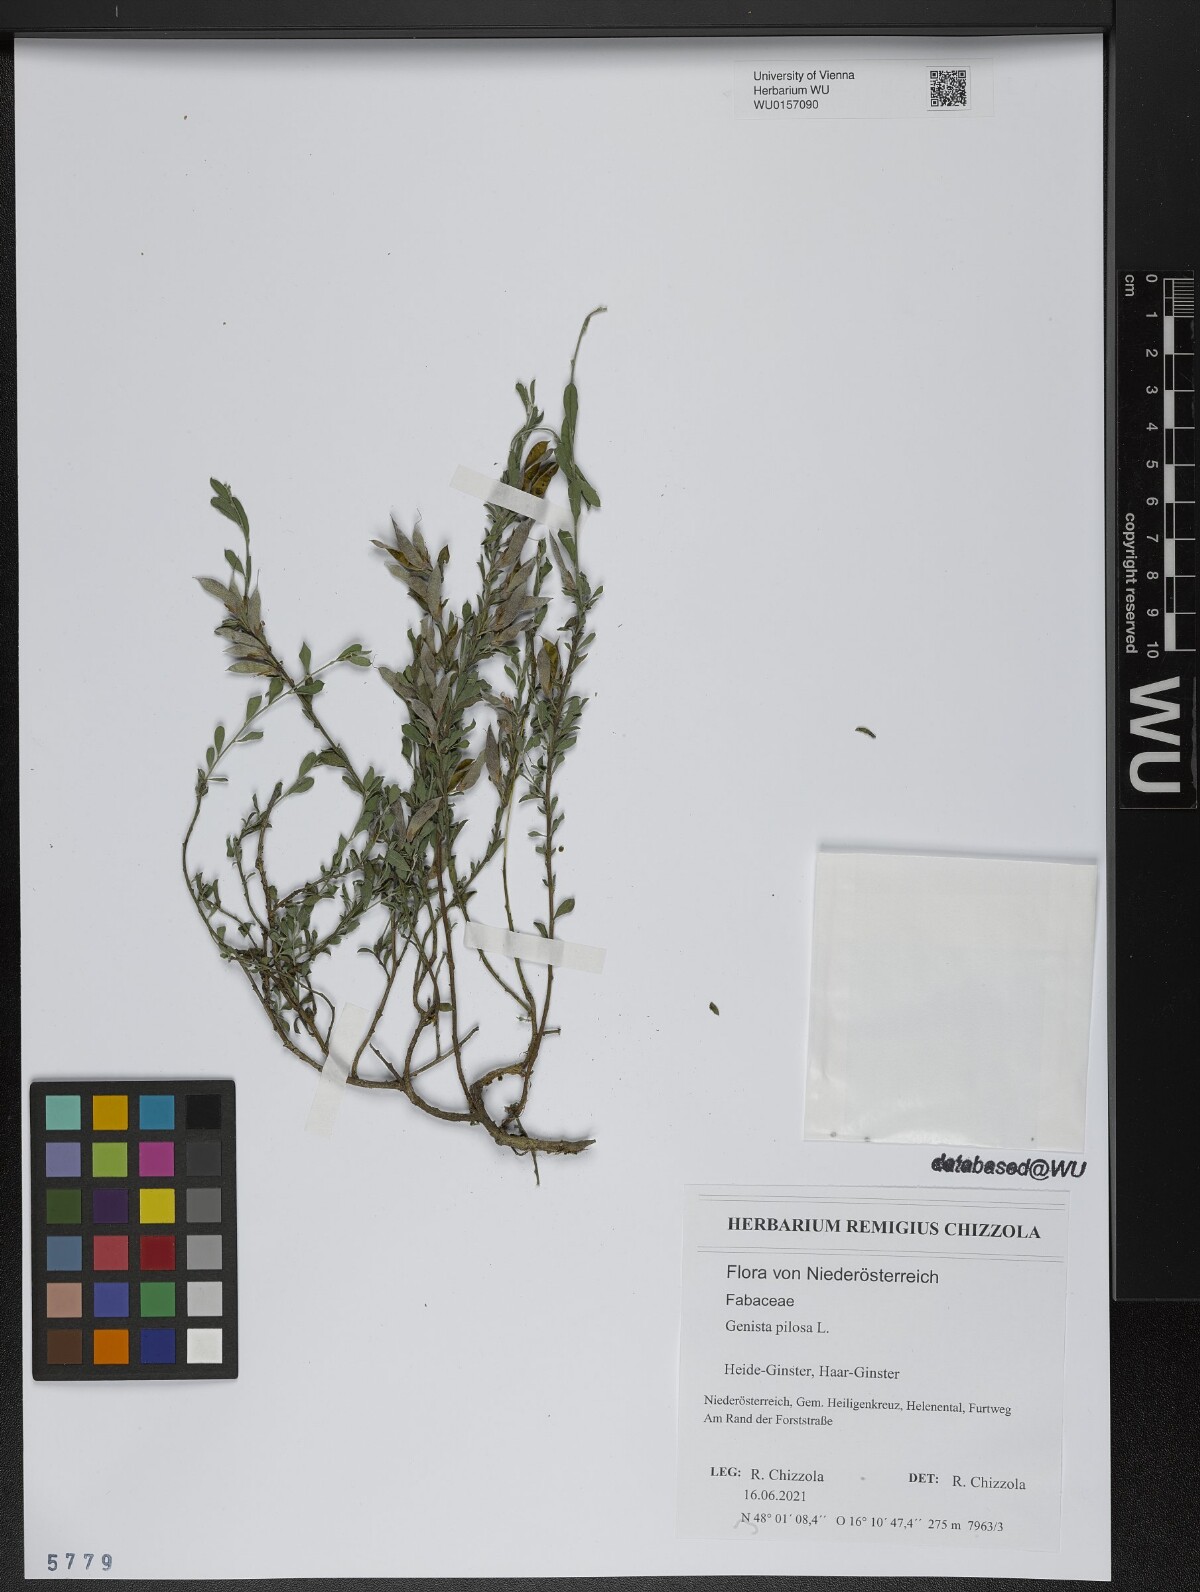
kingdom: Plantae
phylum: Tracheophyta
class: Magnoliopsida
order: Fabales
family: Fabaceae
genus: Genista
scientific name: Genista pilosa
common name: Hairy greenweed
